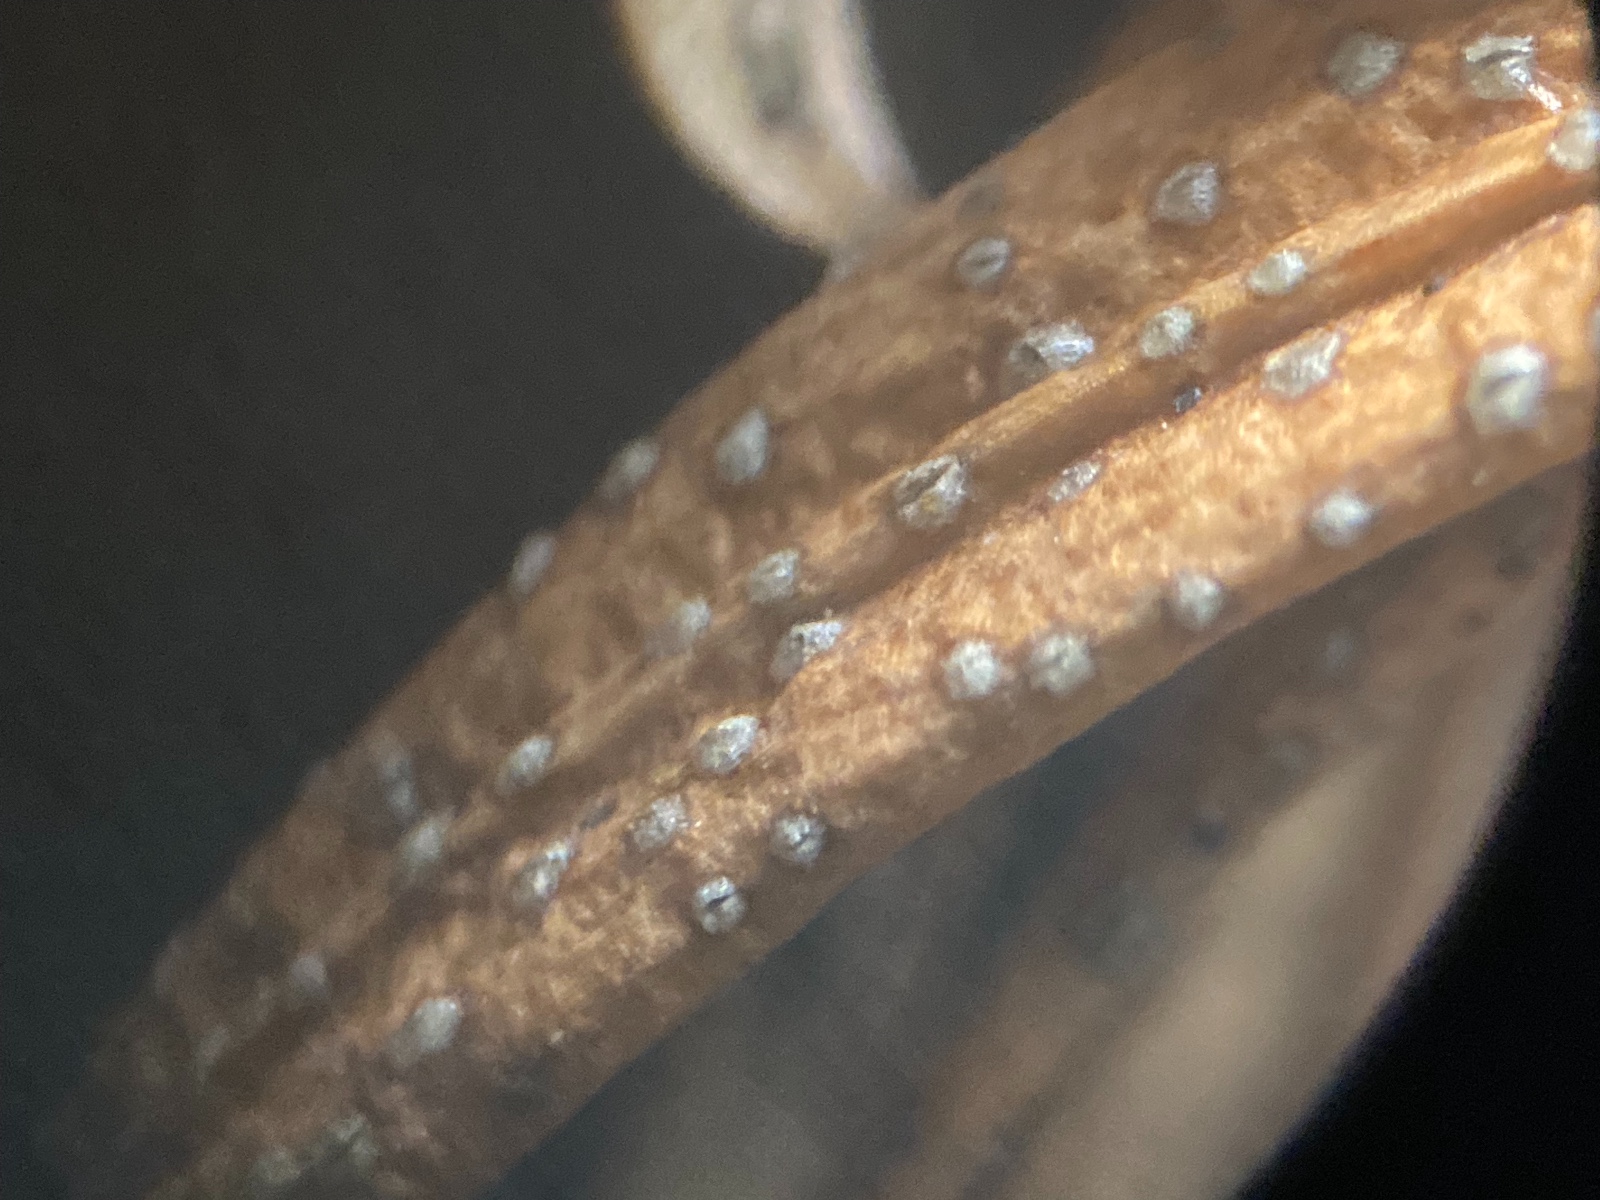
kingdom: Fungi
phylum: Ascomycota
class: Dothideomycetes
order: Botryosphaeriales
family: Botryosphaeriaceae
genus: Diplodia
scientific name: Diplodia taxi
